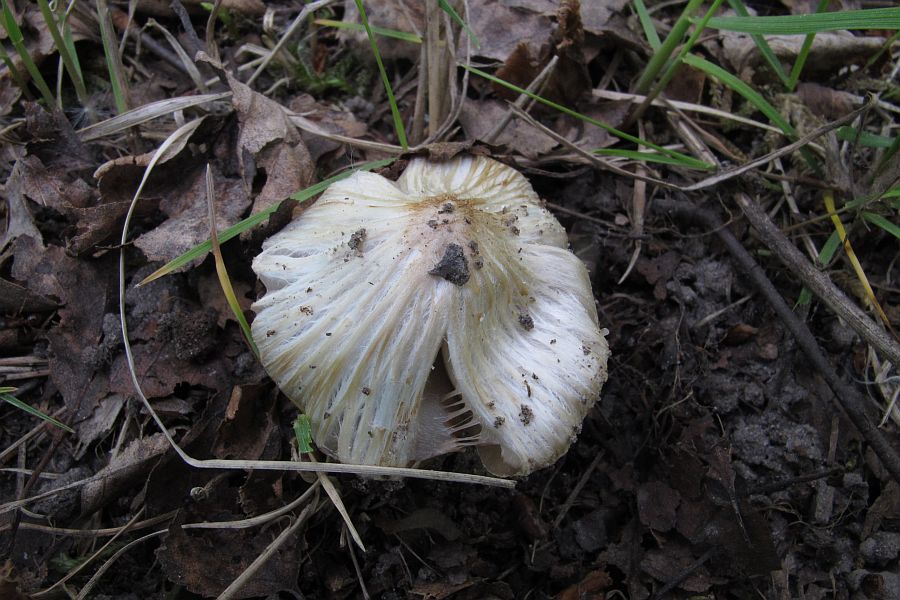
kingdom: Fungi
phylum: Basidiomycota
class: Agaricomycetes
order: Agaricales
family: Inocybaceae
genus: Inosperma
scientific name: Inosperma erubescens
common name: giftig trævlhat
